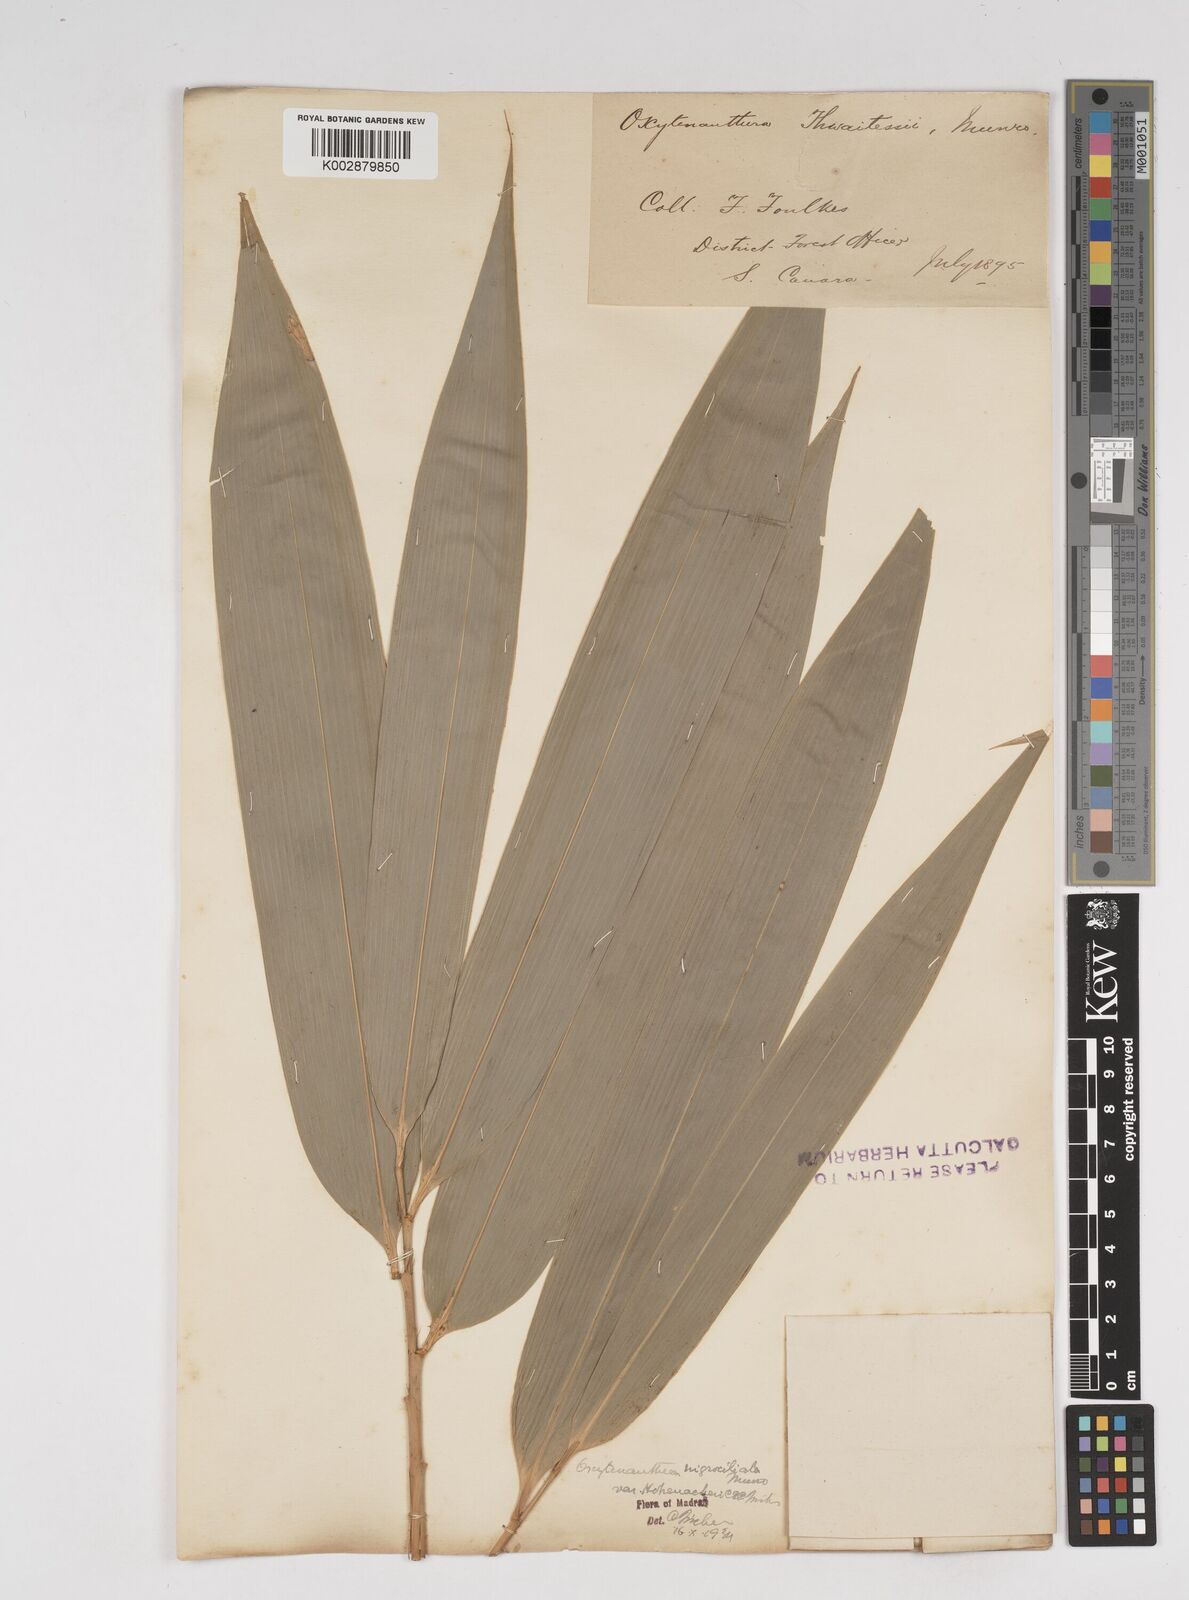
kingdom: Plantae
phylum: Tracheophyta
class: Liliopsida
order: Poales
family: Poaceae
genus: Gigantochloa
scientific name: Gigantochloa latifolia
